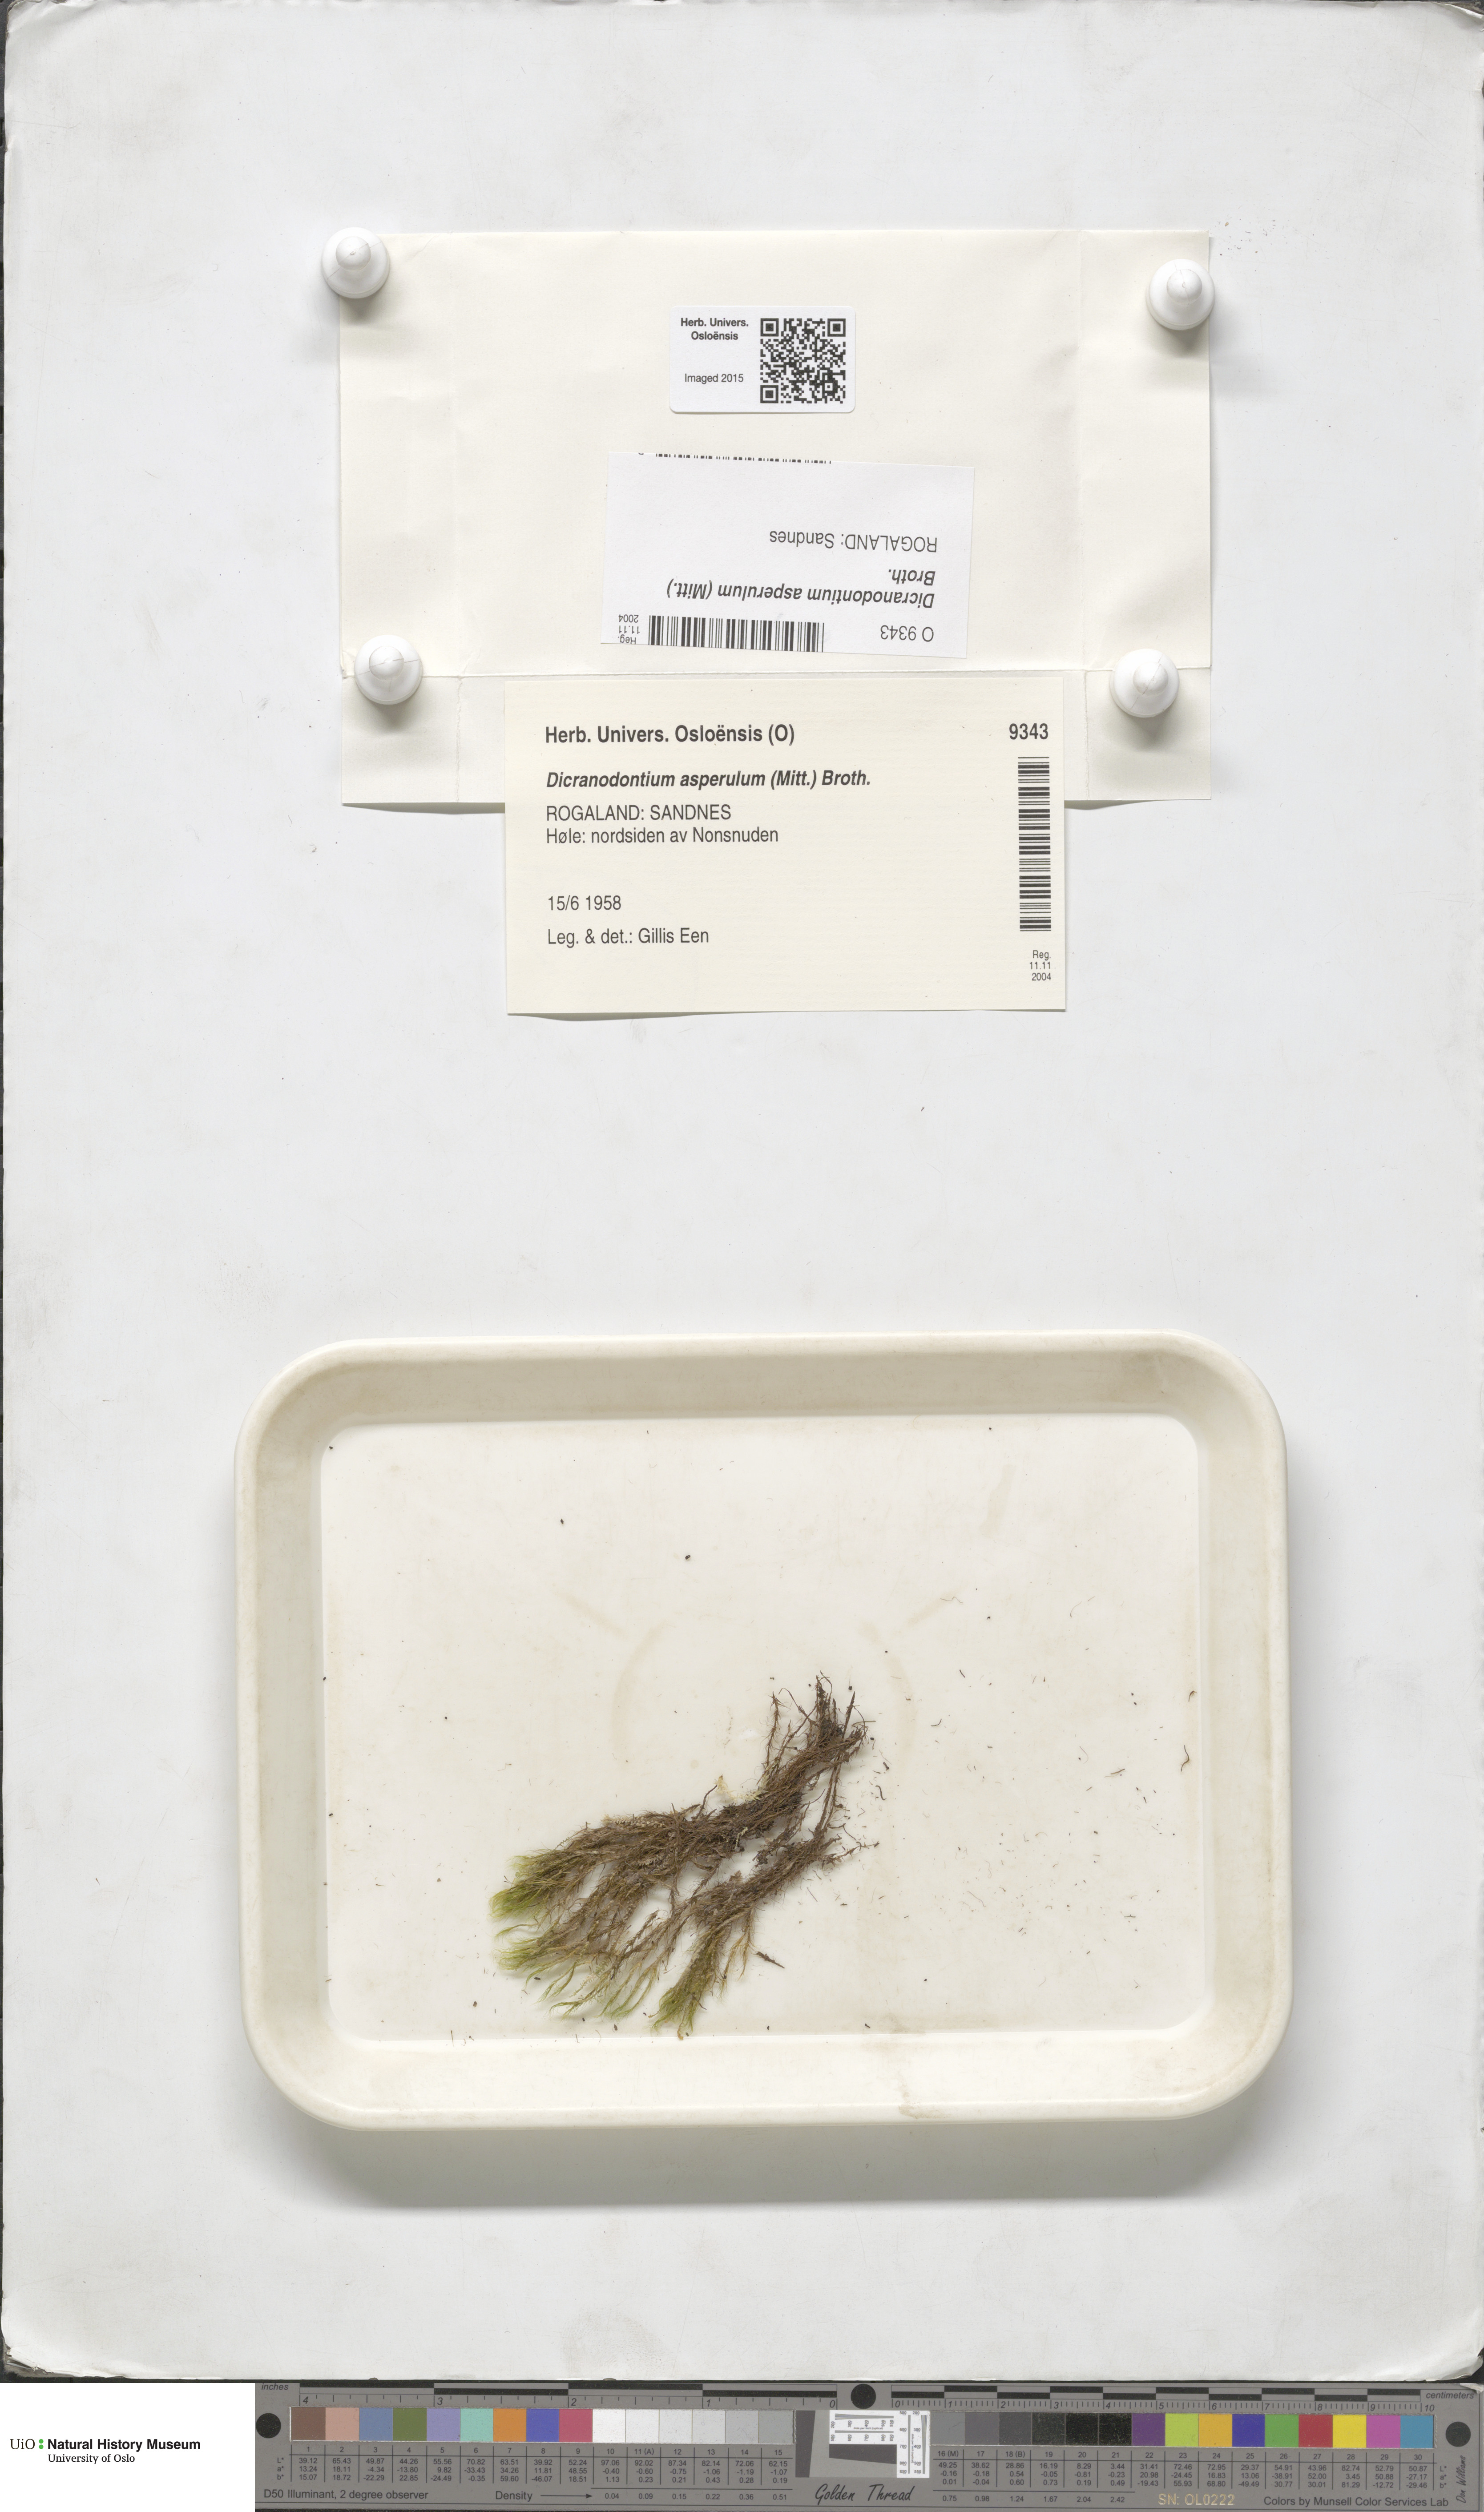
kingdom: Plantae
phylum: Bryophyta
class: Bryopsida
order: Dicranales
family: Leucobryaceae
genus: Dicranodontium
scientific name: Dicranodontium asperulum
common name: Orange bow-moss
